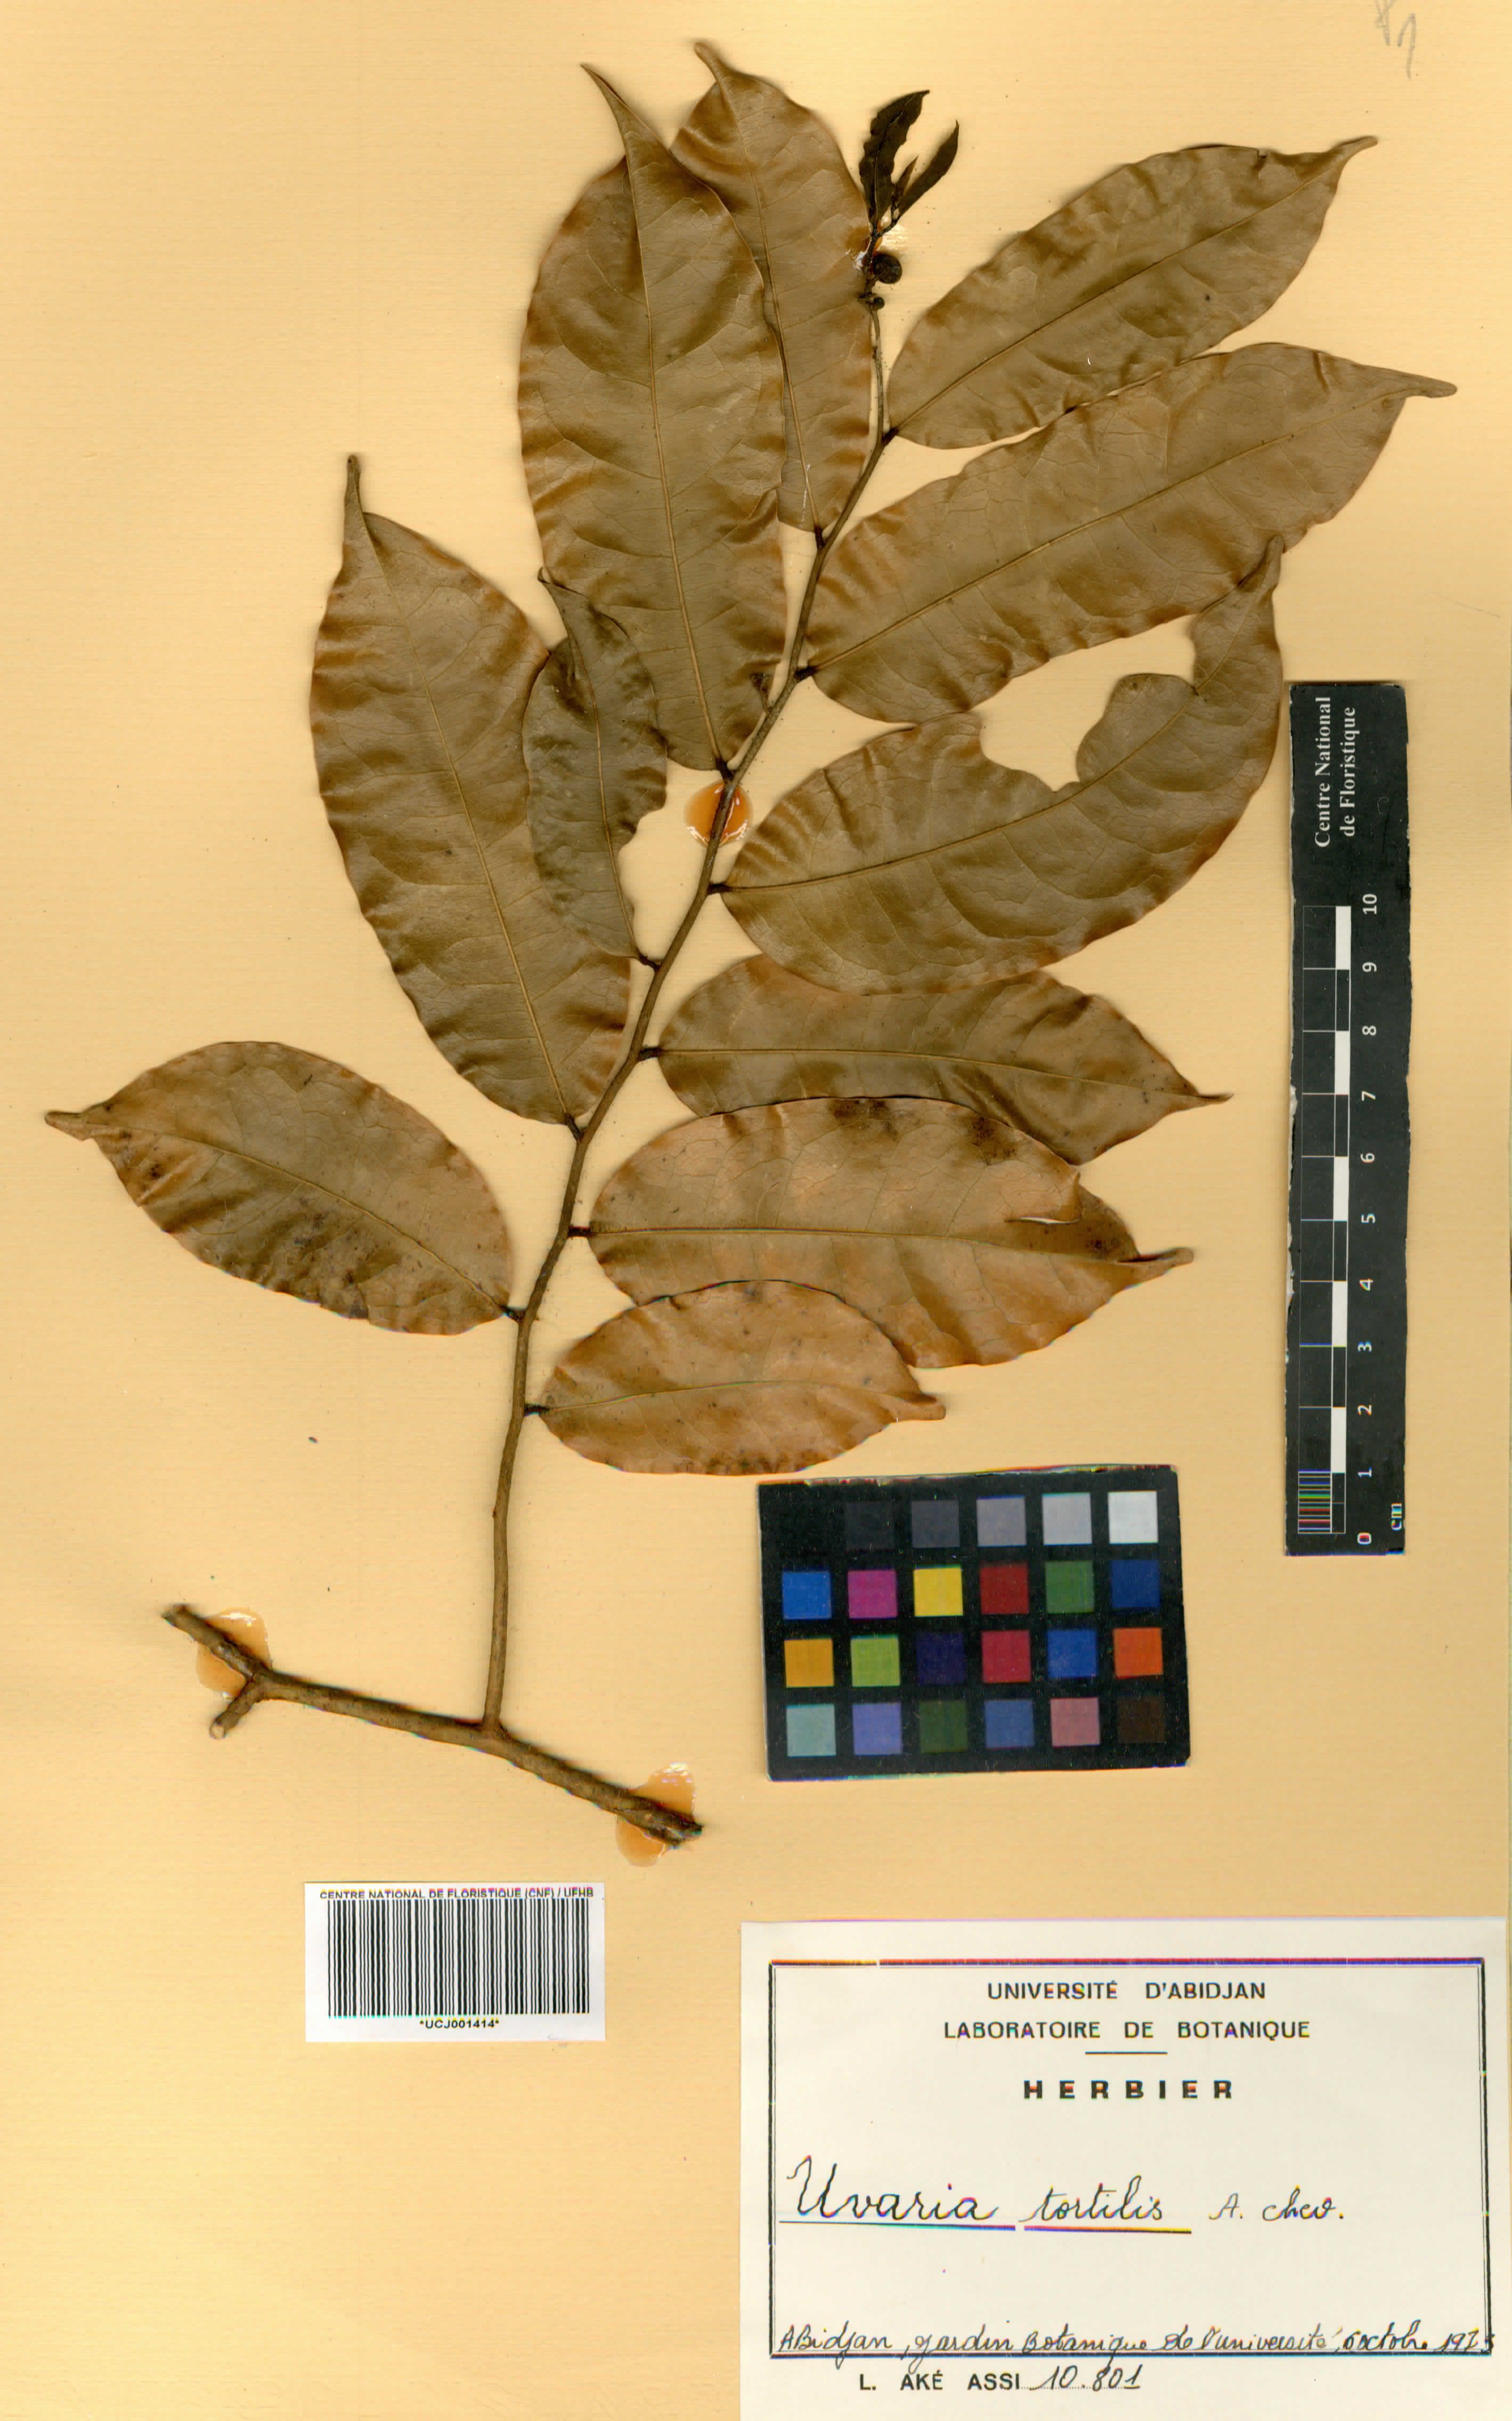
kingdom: Plantae
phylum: Tracheophyta
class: Magnoliopsida
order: Magnoliales
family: Annonaceae
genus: Uvaria
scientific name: Uvaria tortilis
